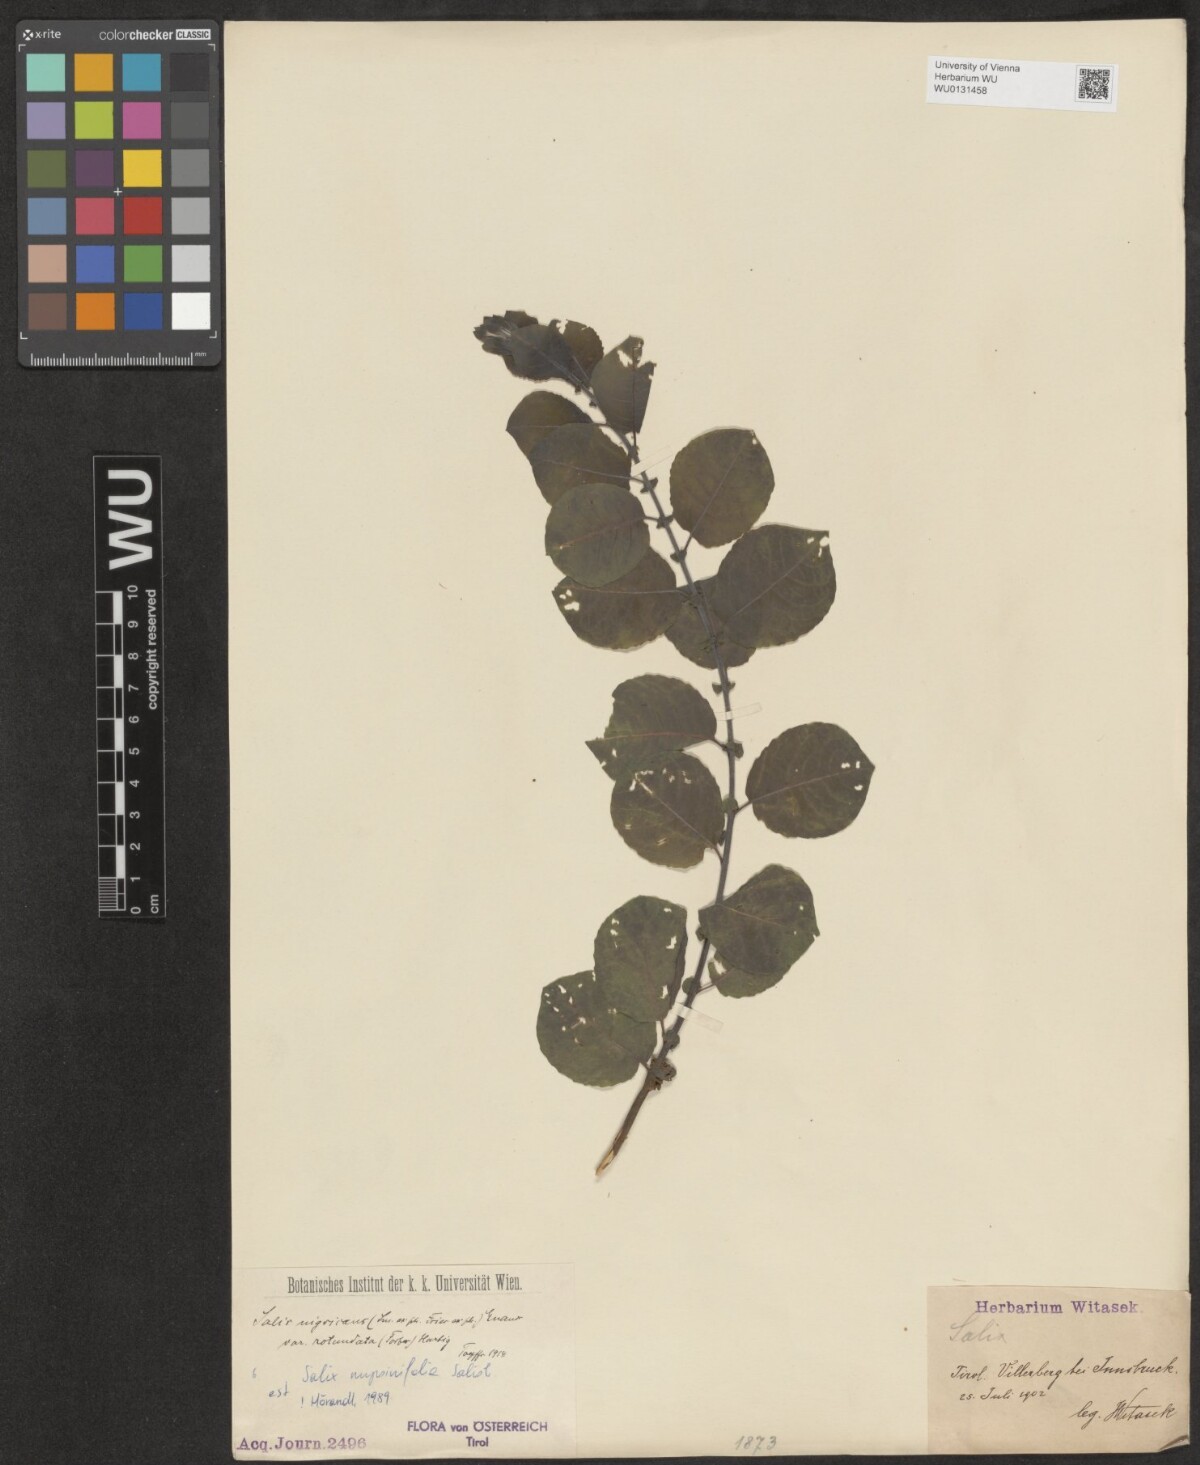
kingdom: Plantae
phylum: Tracheophyta
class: Magnoliopsida
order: Malpighiales
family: Salicaceae
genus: Salix
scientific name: Salix myrsinifolia
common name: Dark-leaved willow
